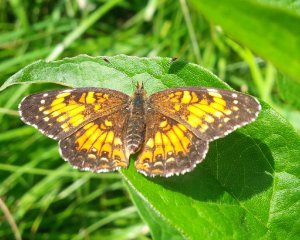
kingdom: Animalia
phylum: Arthropoda
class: Insecta
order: Lepidoptera
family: Nymphalidae
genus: Chlosyne
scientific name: Chlosyne harrisii
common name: Harris's Checkerspot
